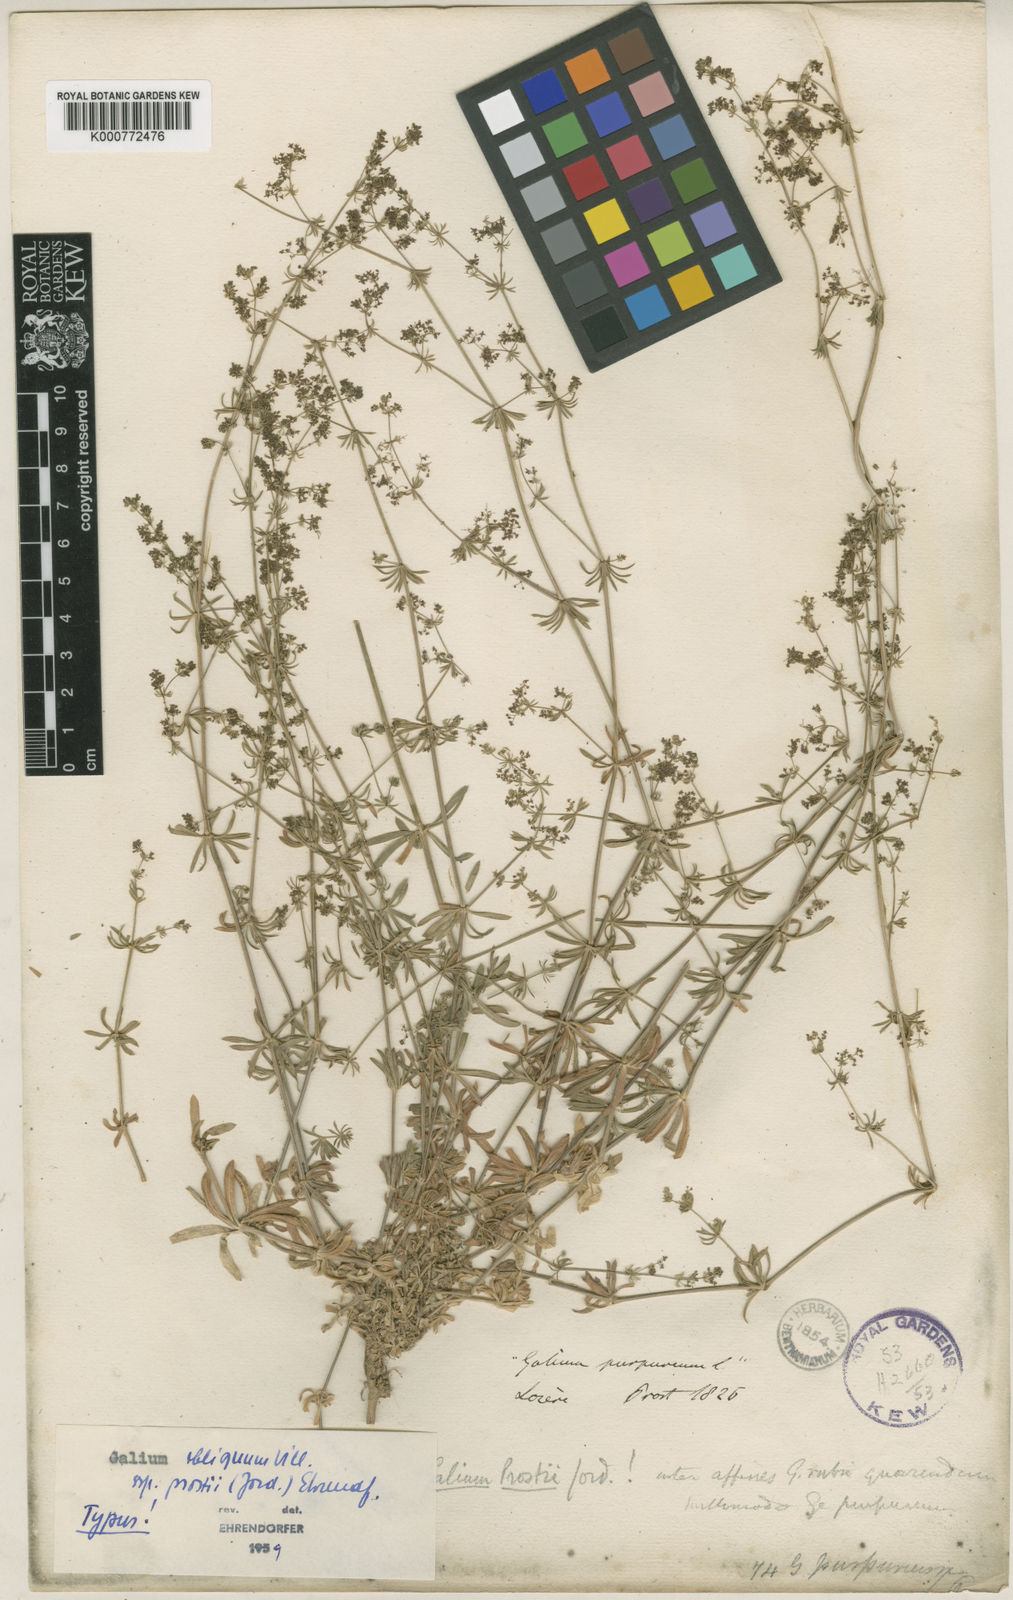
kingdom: Plantae
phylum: Tracheophyta
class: Magnoliopsida
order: Gentianales
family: Rubiaceae
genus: Galium
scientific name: Galium obliquum
